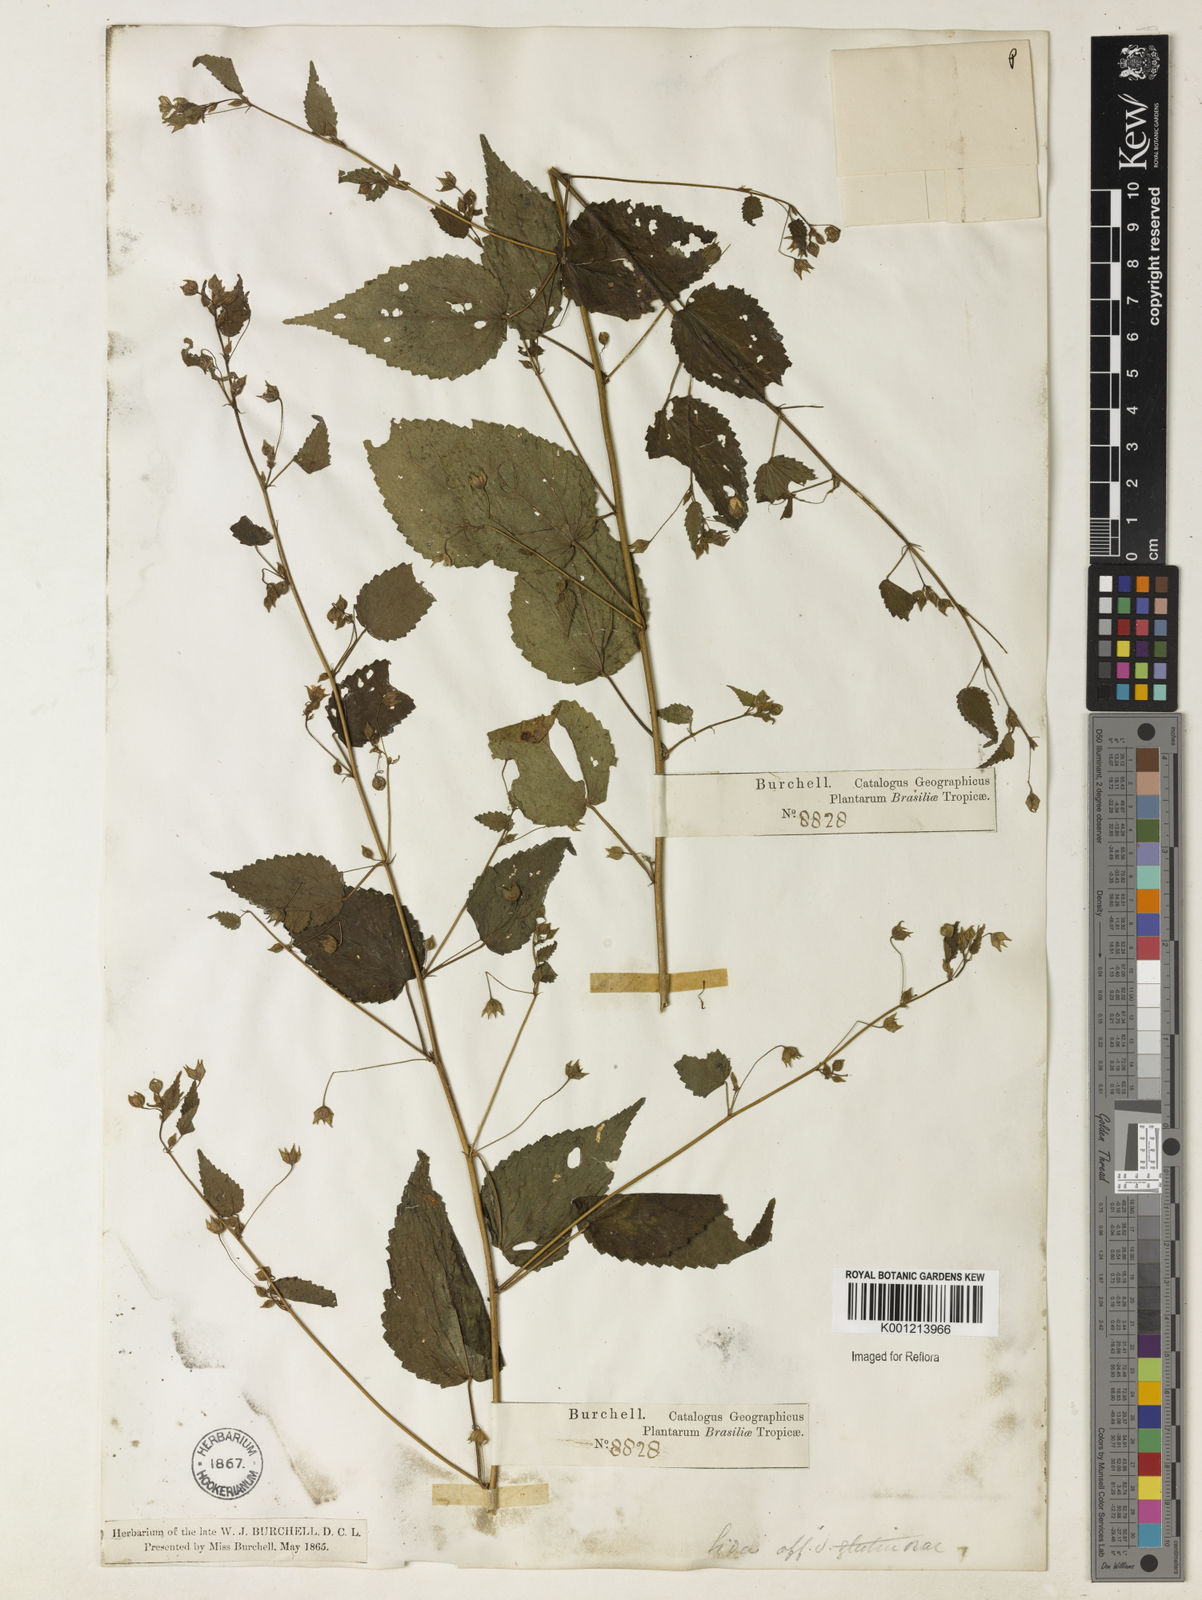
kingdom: Plantae
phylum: Tracheophyta
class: Magnoliopsida
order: Malvales
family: Malvaceae
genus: Sida
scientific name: Sida glutinosa
